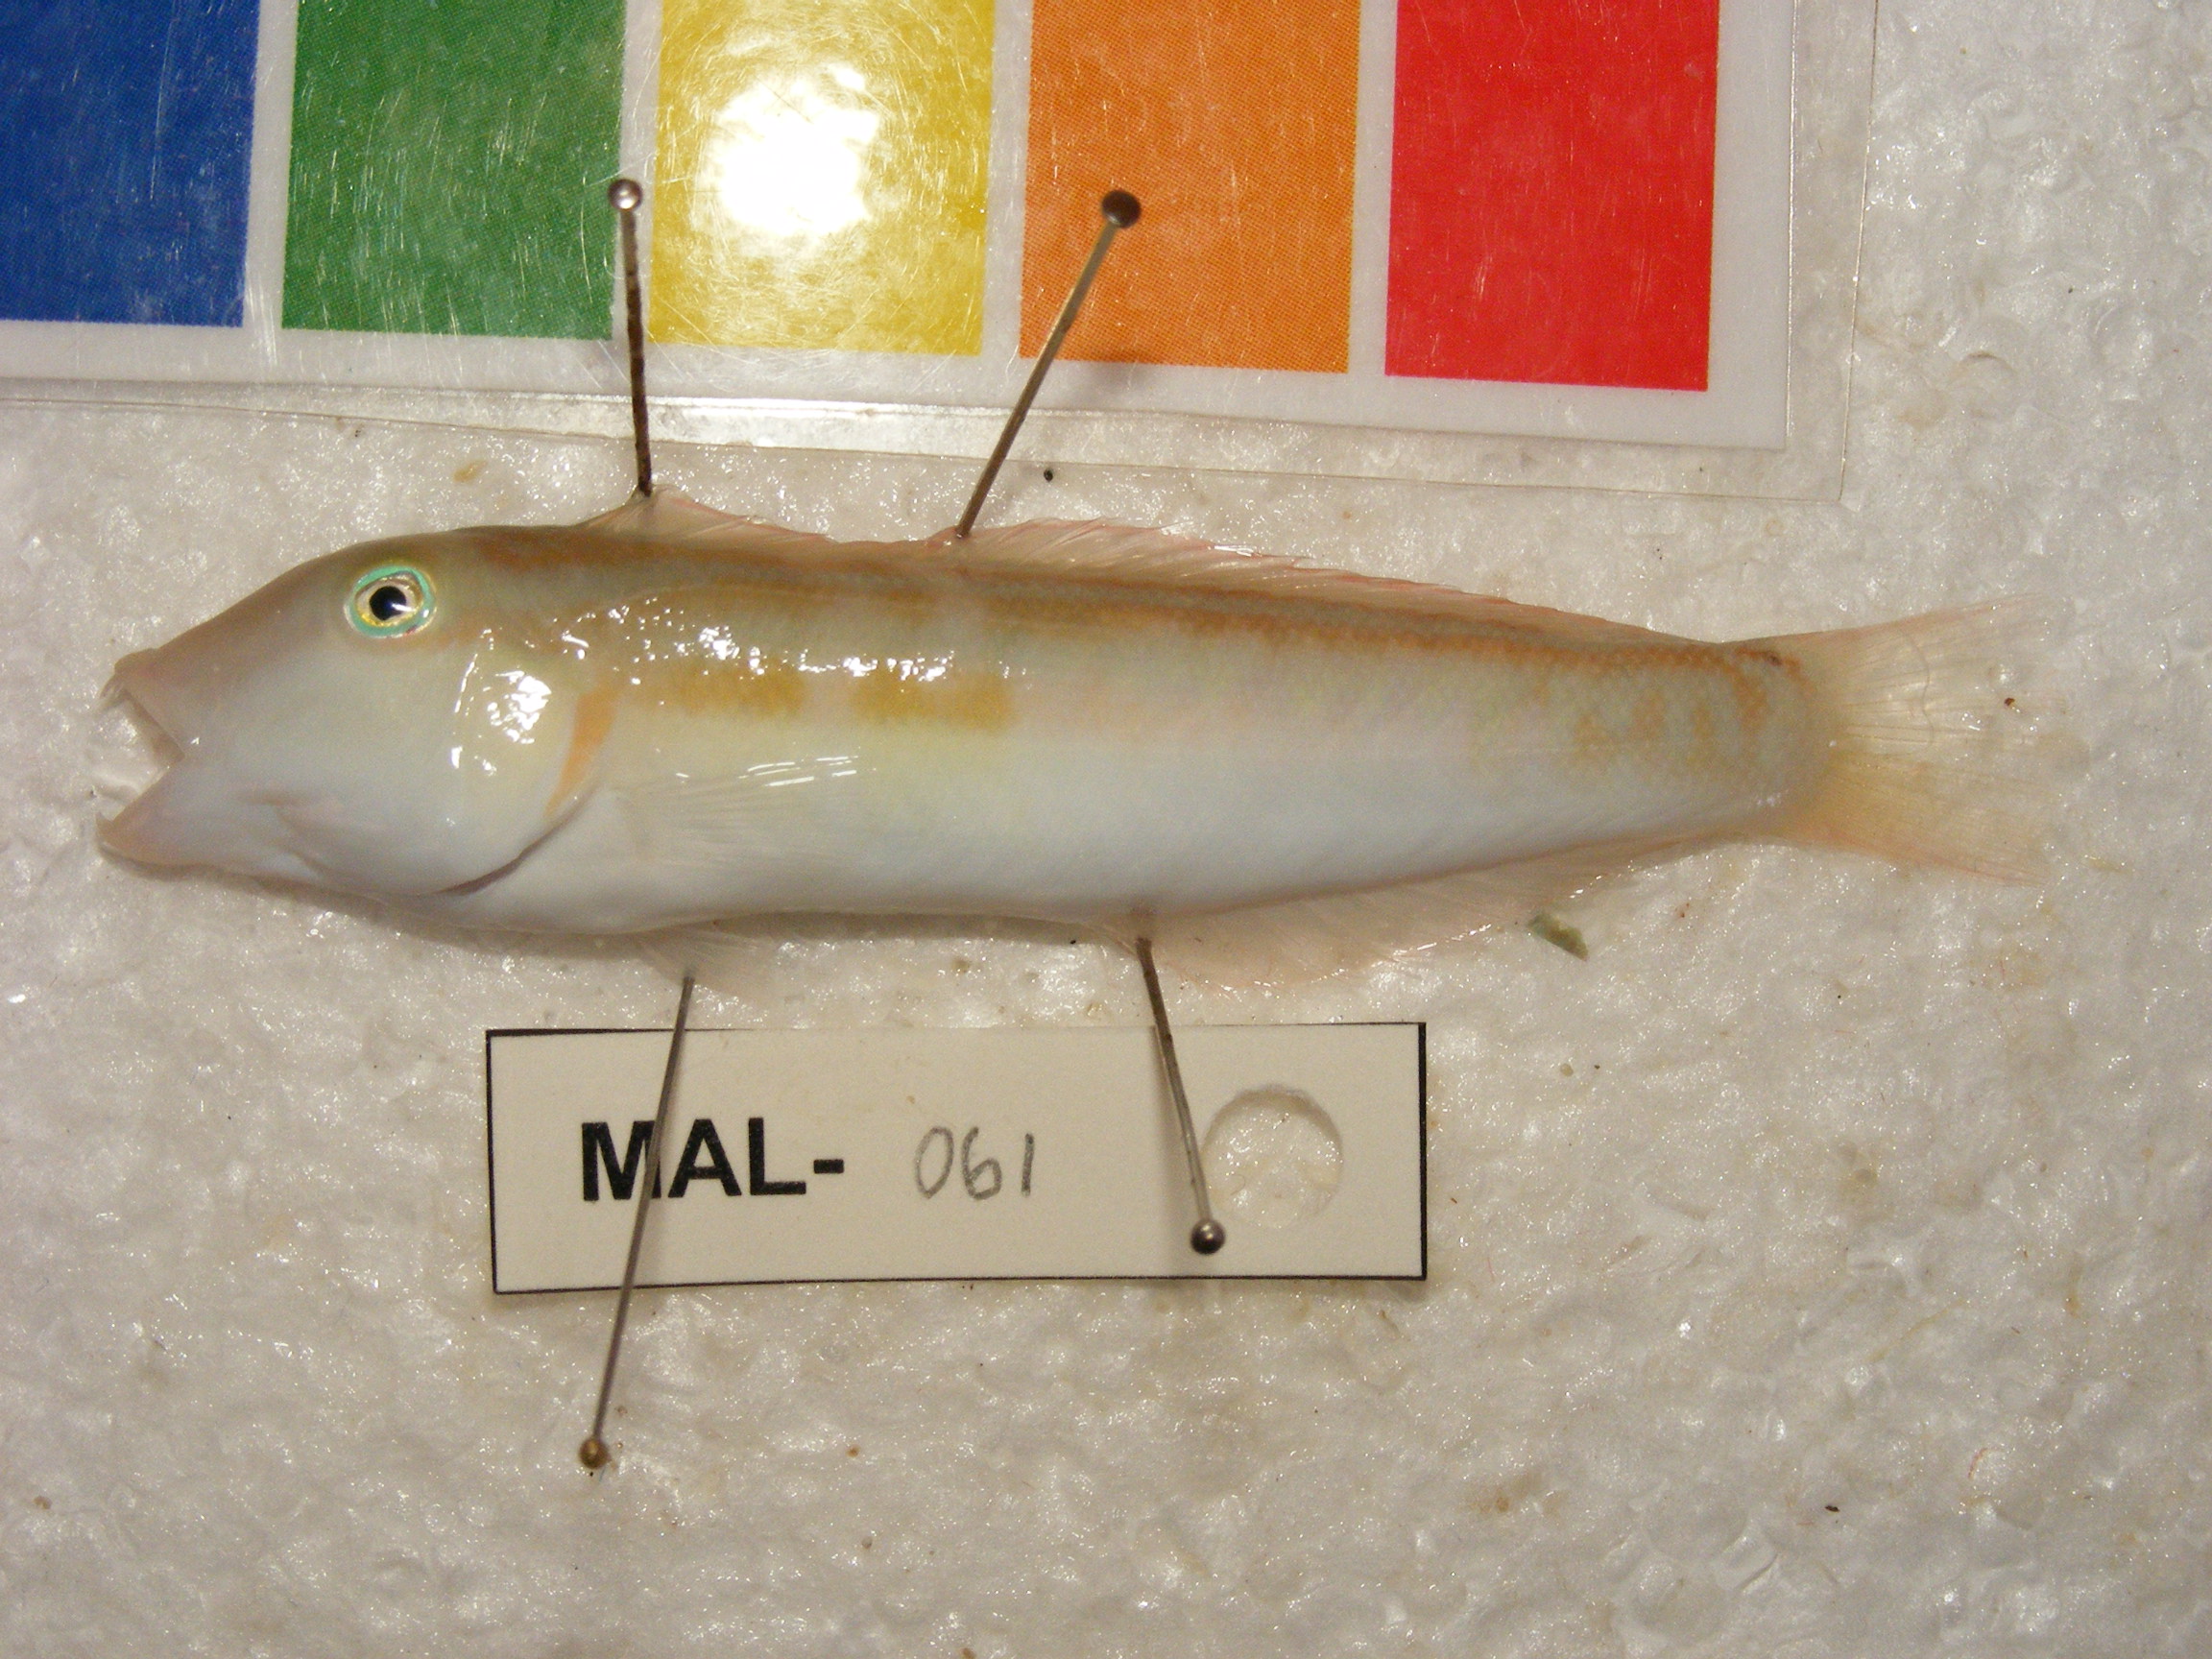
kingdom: Animalia
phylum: Chordata
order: Perciformes
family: Labridae
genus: Cymolutes
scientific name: Cymolutes
